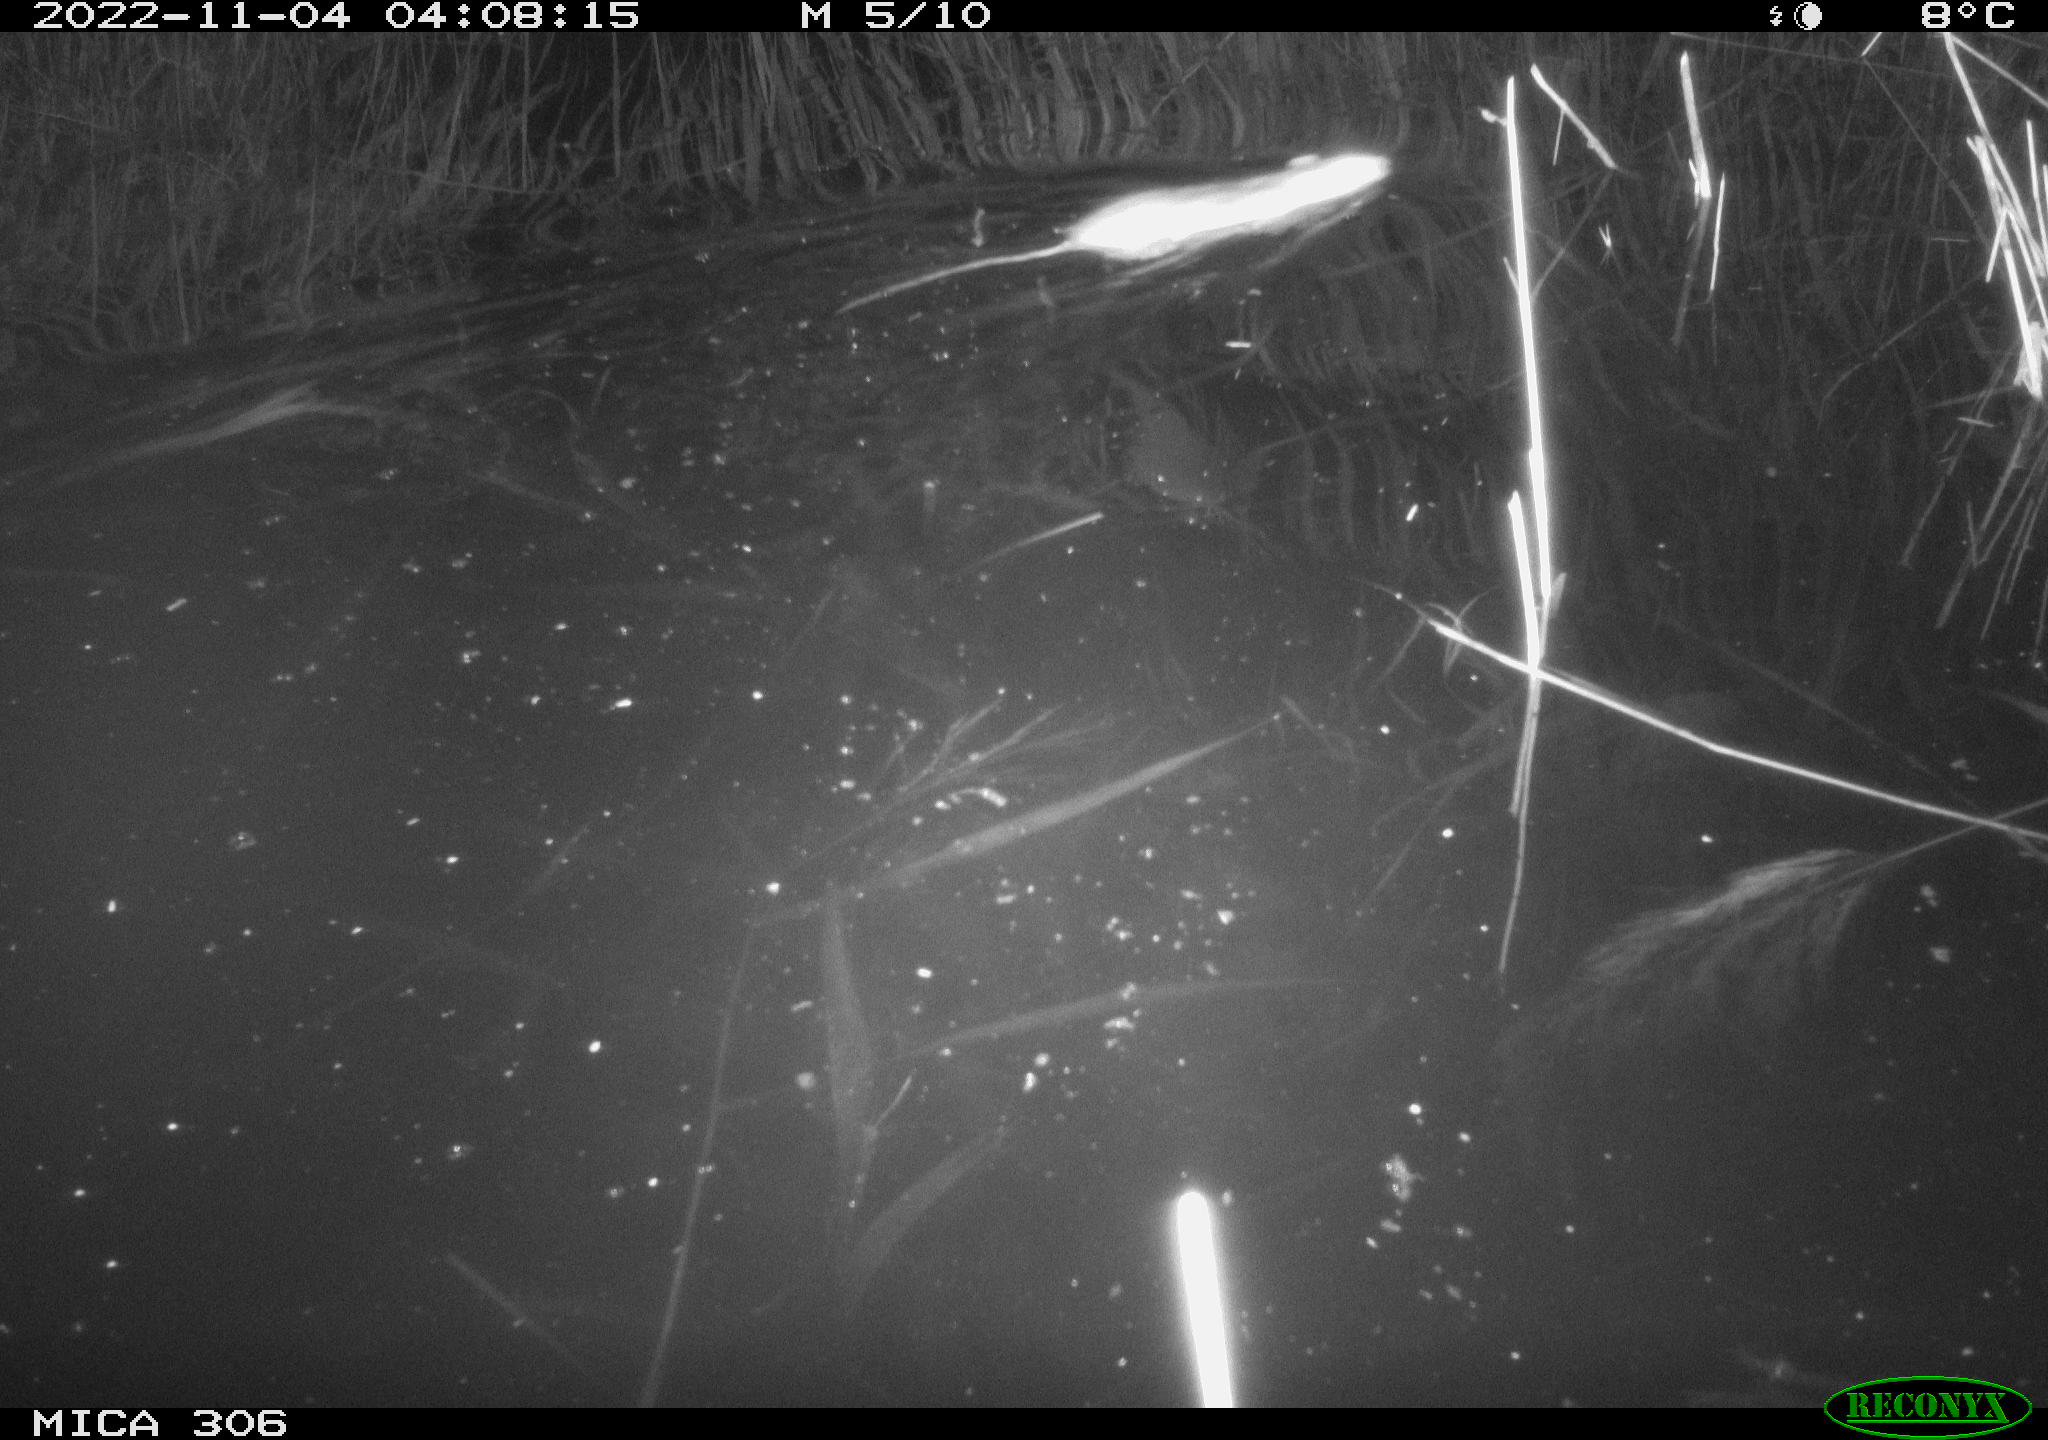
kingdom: Animalia
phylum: Chordata
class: Mammalia
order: Rodentia
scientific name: Rodentia
